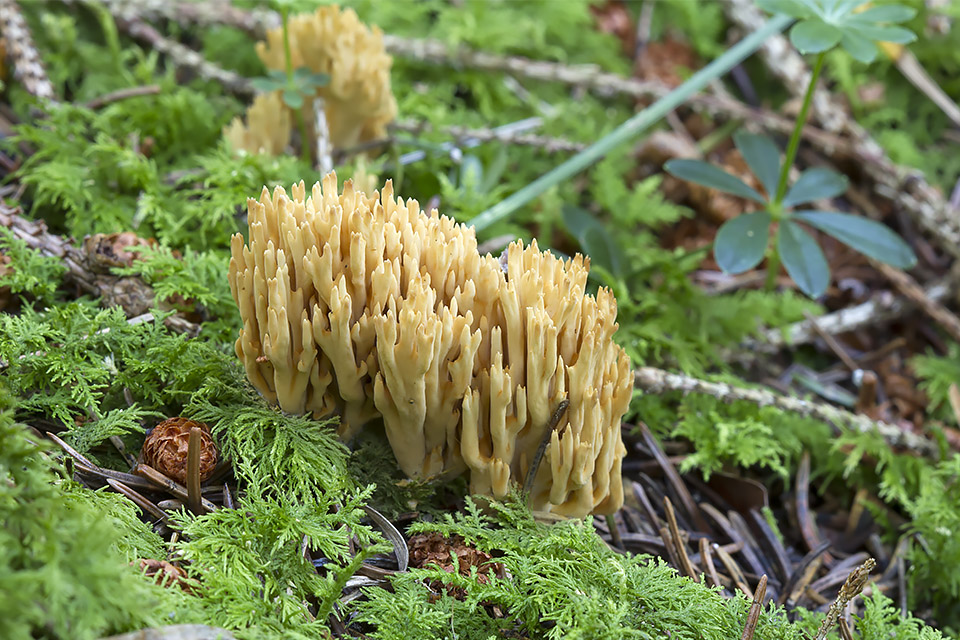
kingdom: Fungi
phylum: Basidiomycota
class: Agaricomycetes
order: Gomphales
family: Gomphaceae
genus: Phaeoclavulina
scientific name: Phaeoclavulina eumorpha
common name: gran-koralsvamp
